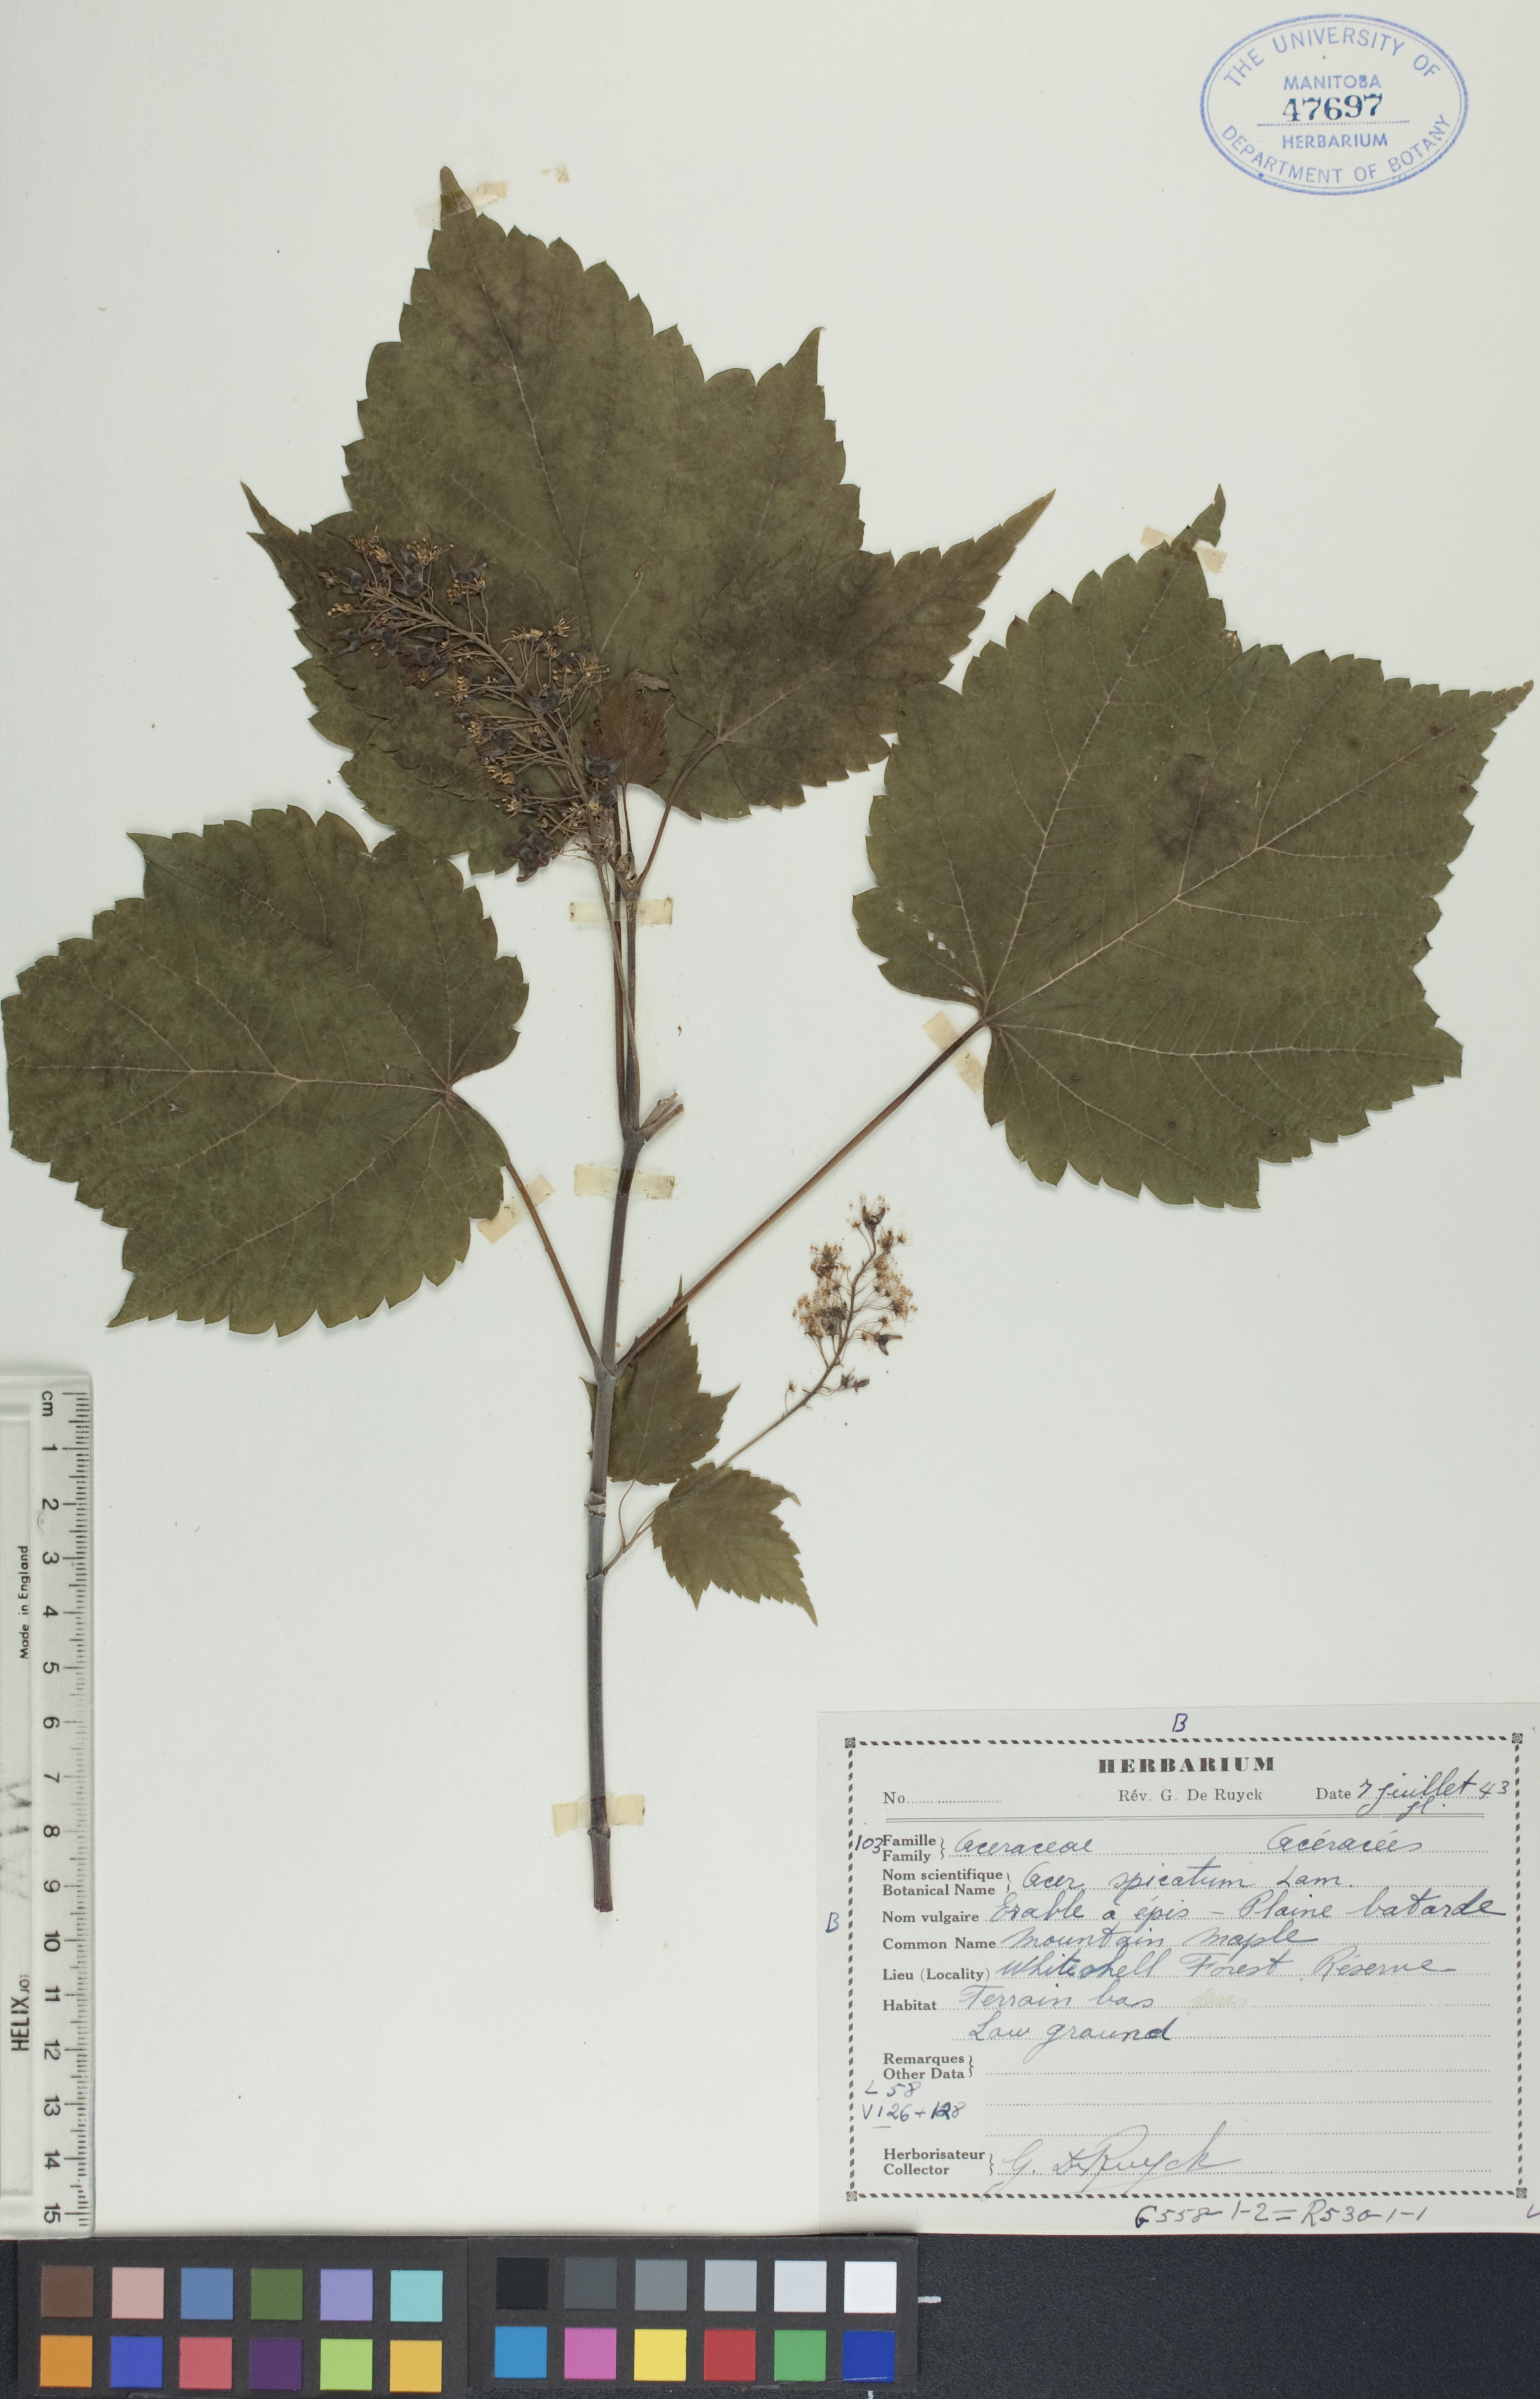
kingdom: Plantae
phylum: Tracheophyta
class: Magnoliopsida
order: Sapindales
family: Sapindaceae
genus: Acer
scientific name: Acer spicatum
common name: Mountain maple
